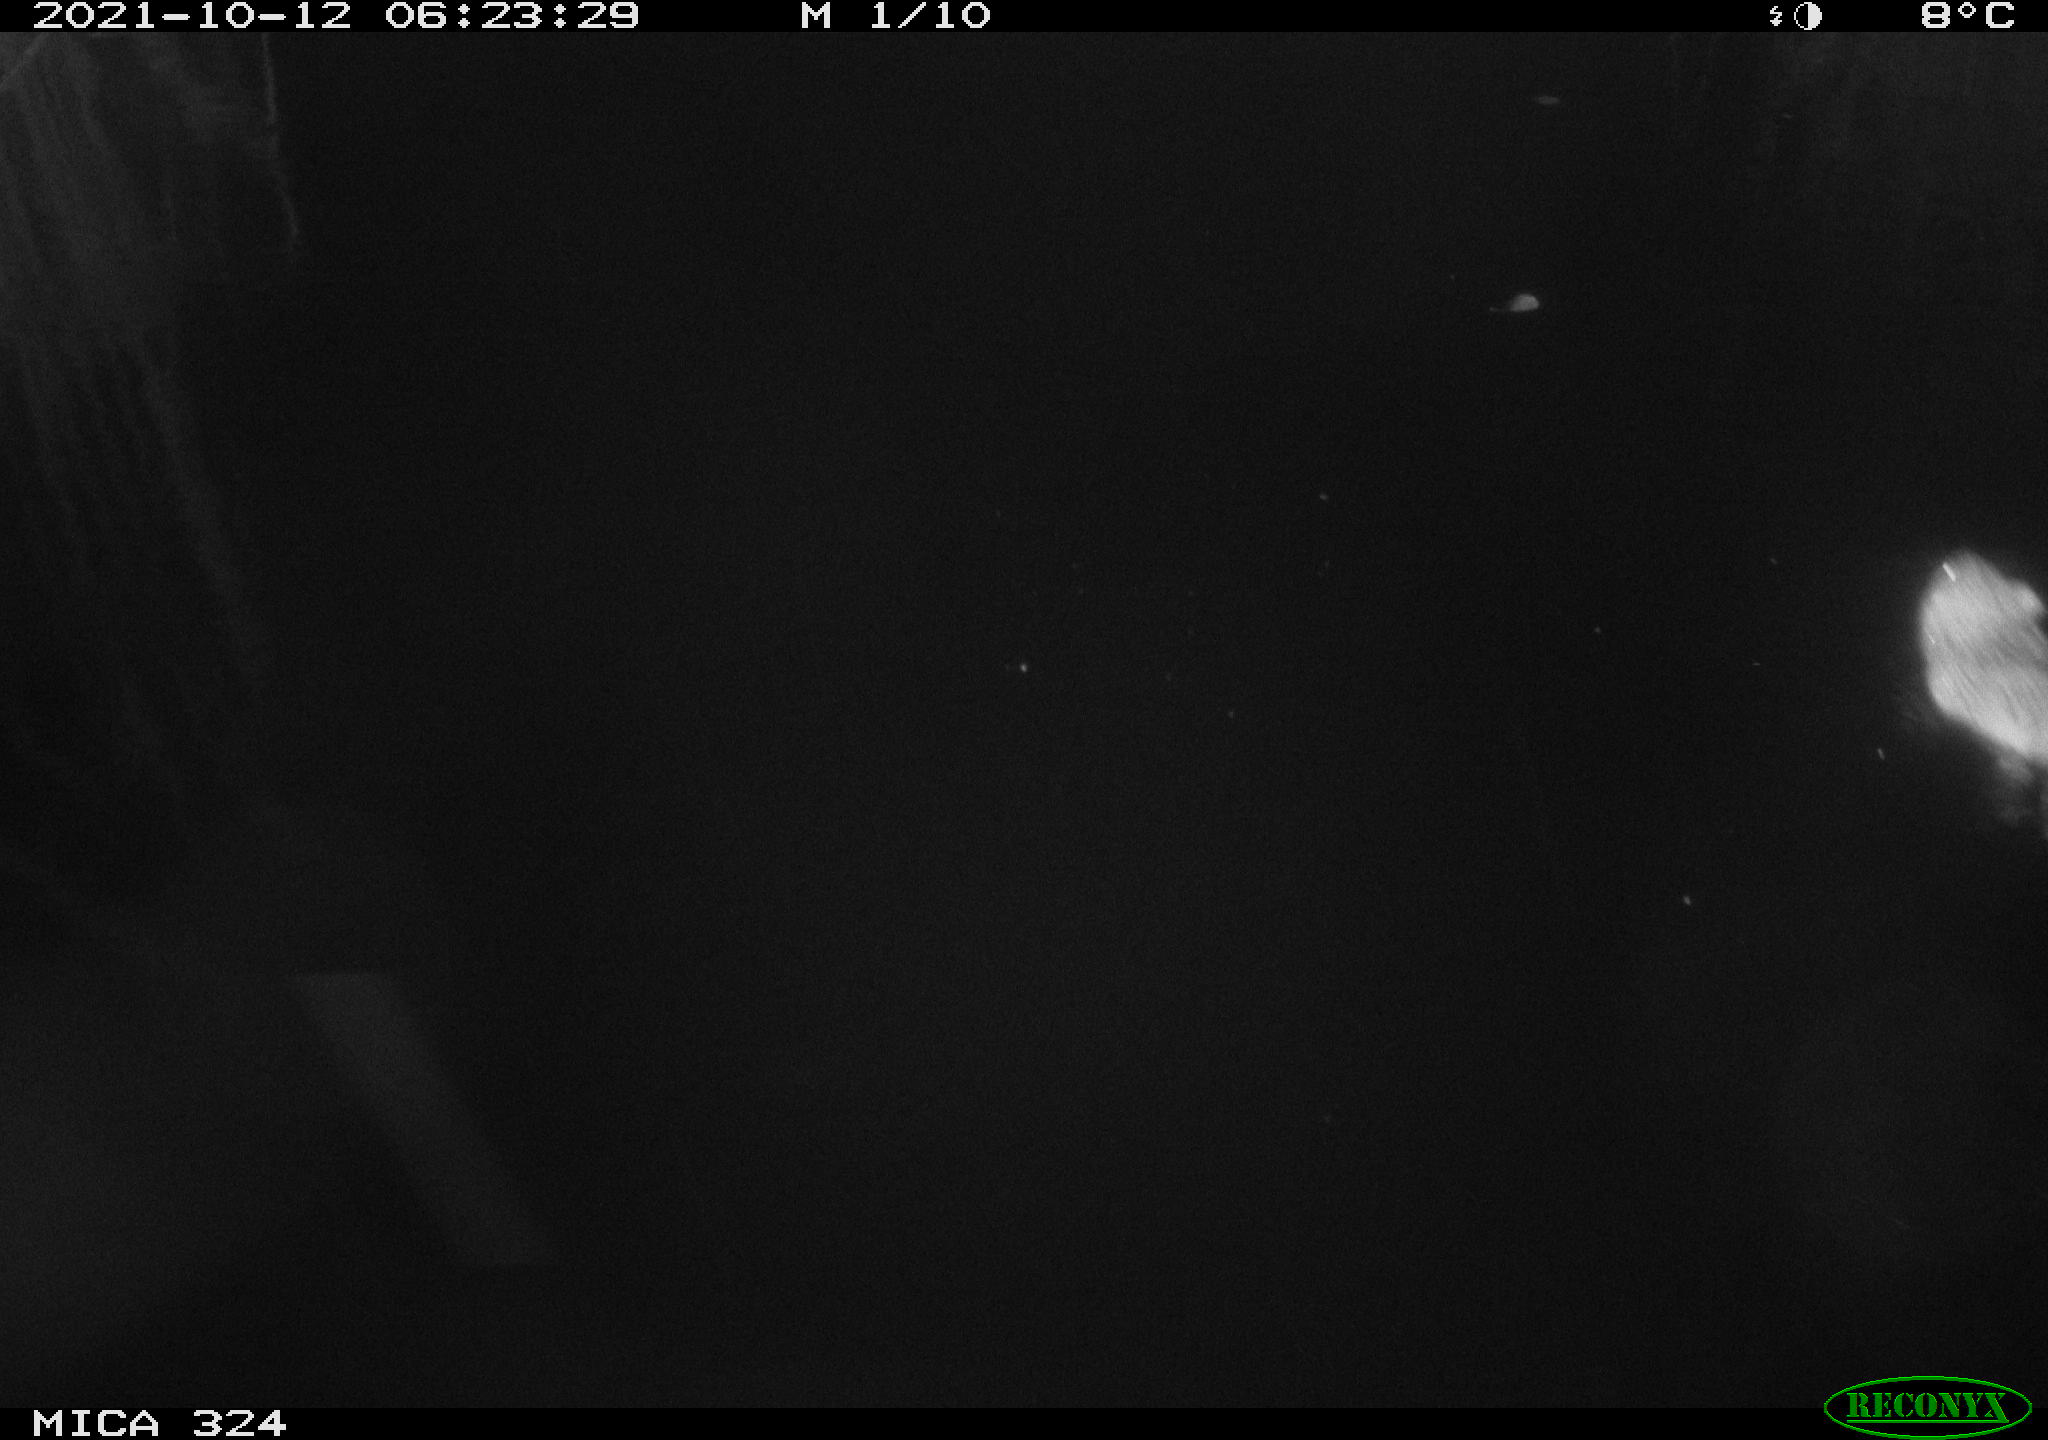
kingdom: Animalia
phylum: Chordata
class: Mammalia
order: Rodentia
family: Cricetidae
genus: Ondatra
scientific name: Ondatra zibethicus
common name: Muskrat
